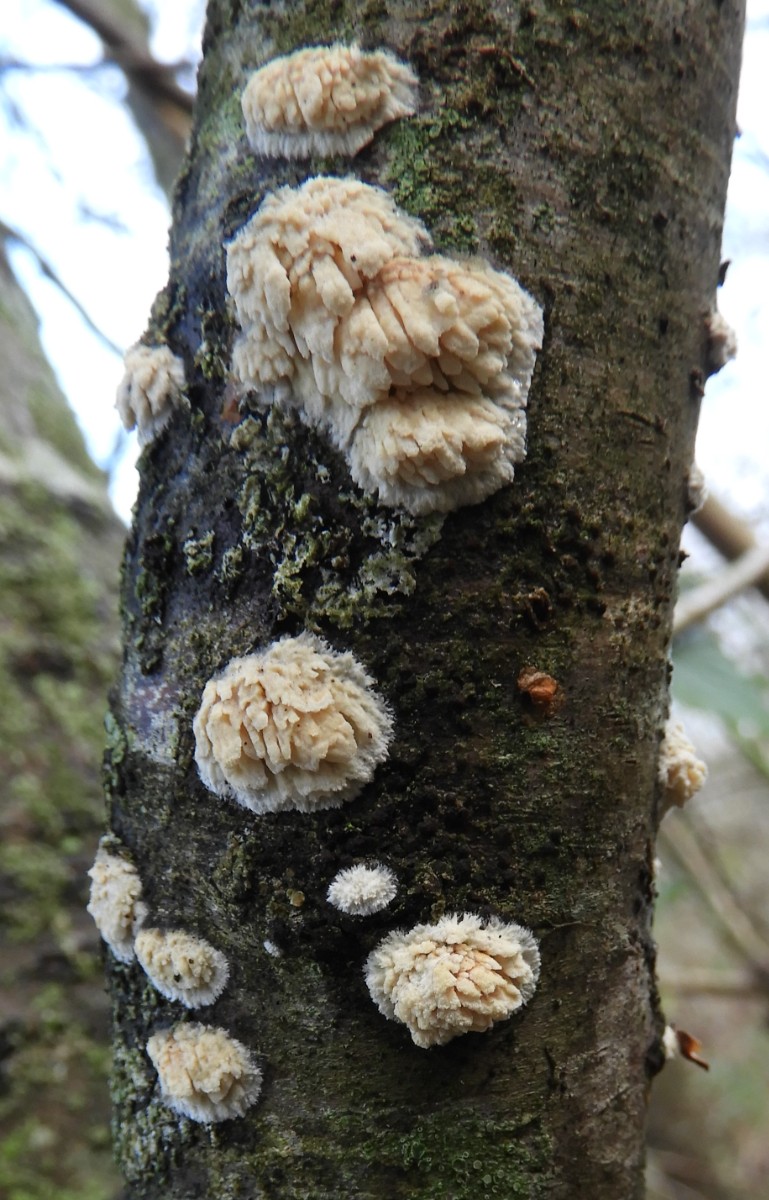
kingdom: Fungi
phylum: Basidiomycota
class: Agaricomycetes
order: Hymenochaetales
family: Schizoporaceae
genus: Xylodon
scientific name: Xylodon radula
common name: grovtandet kalkskind
